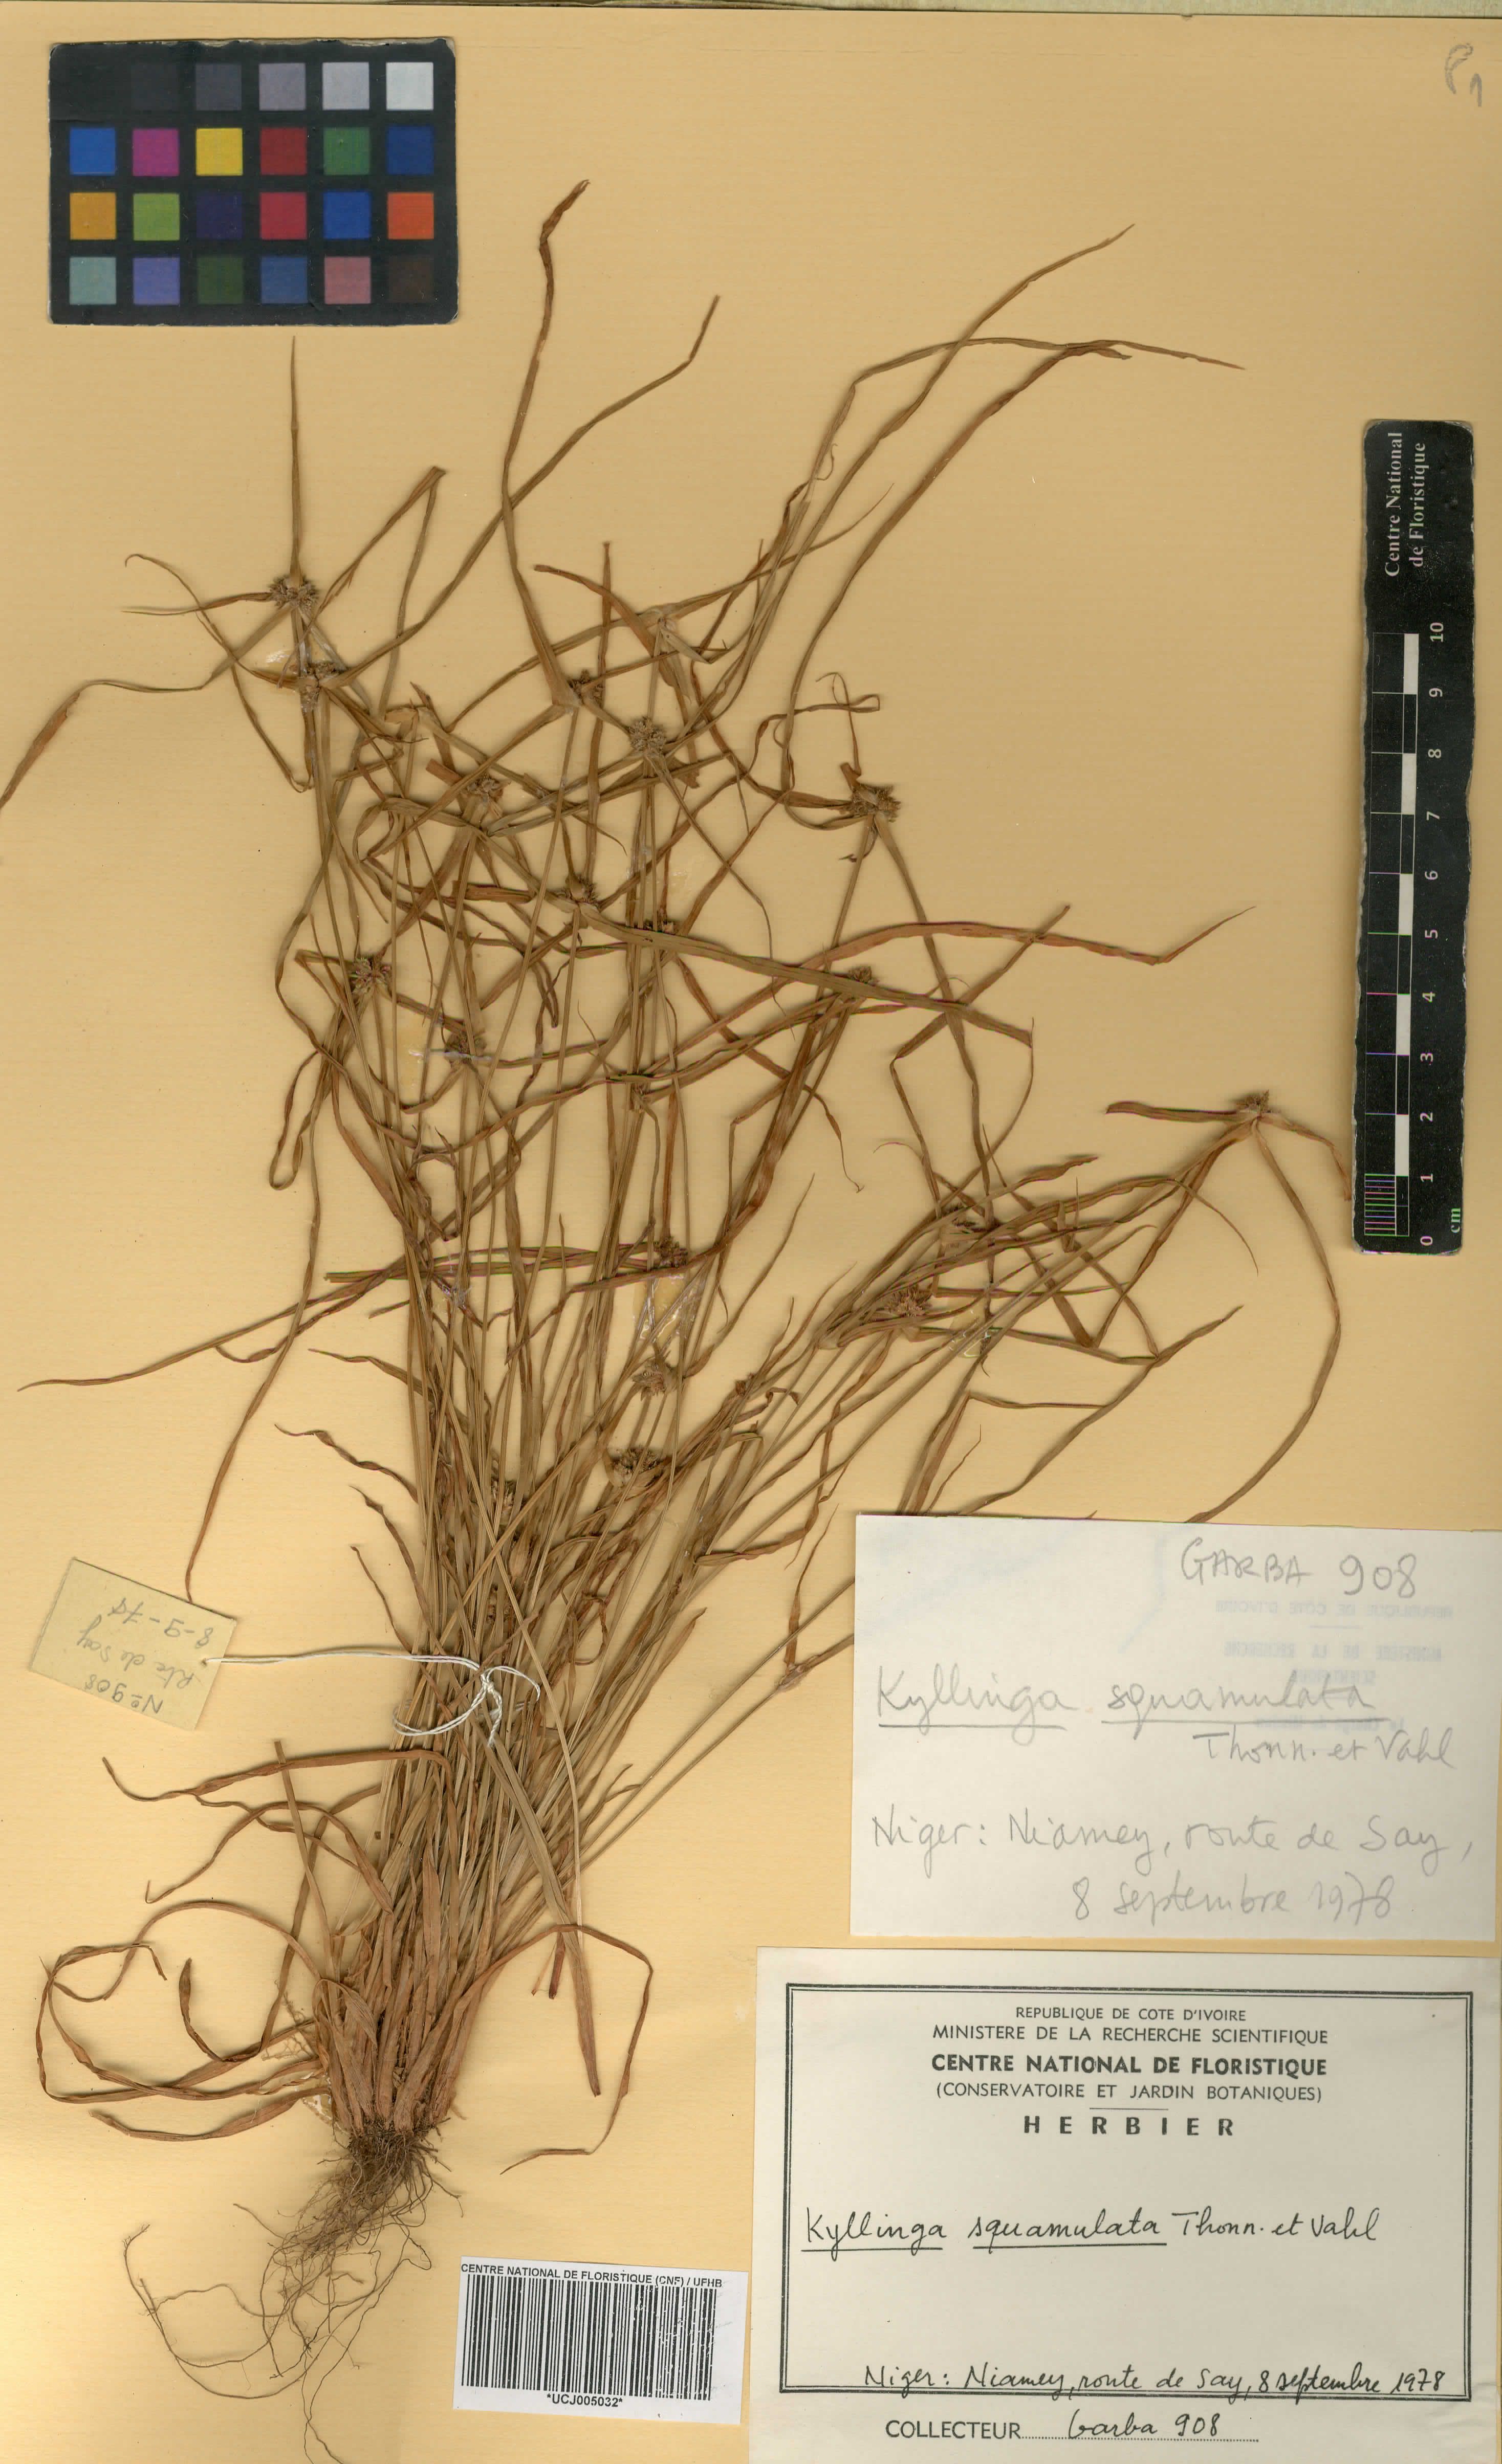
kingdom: Plantae
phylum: Tracheophyta
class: Liliopsida
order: Poales
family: Cyperaceae
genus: Cyperus
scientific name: Cyperus metzii
